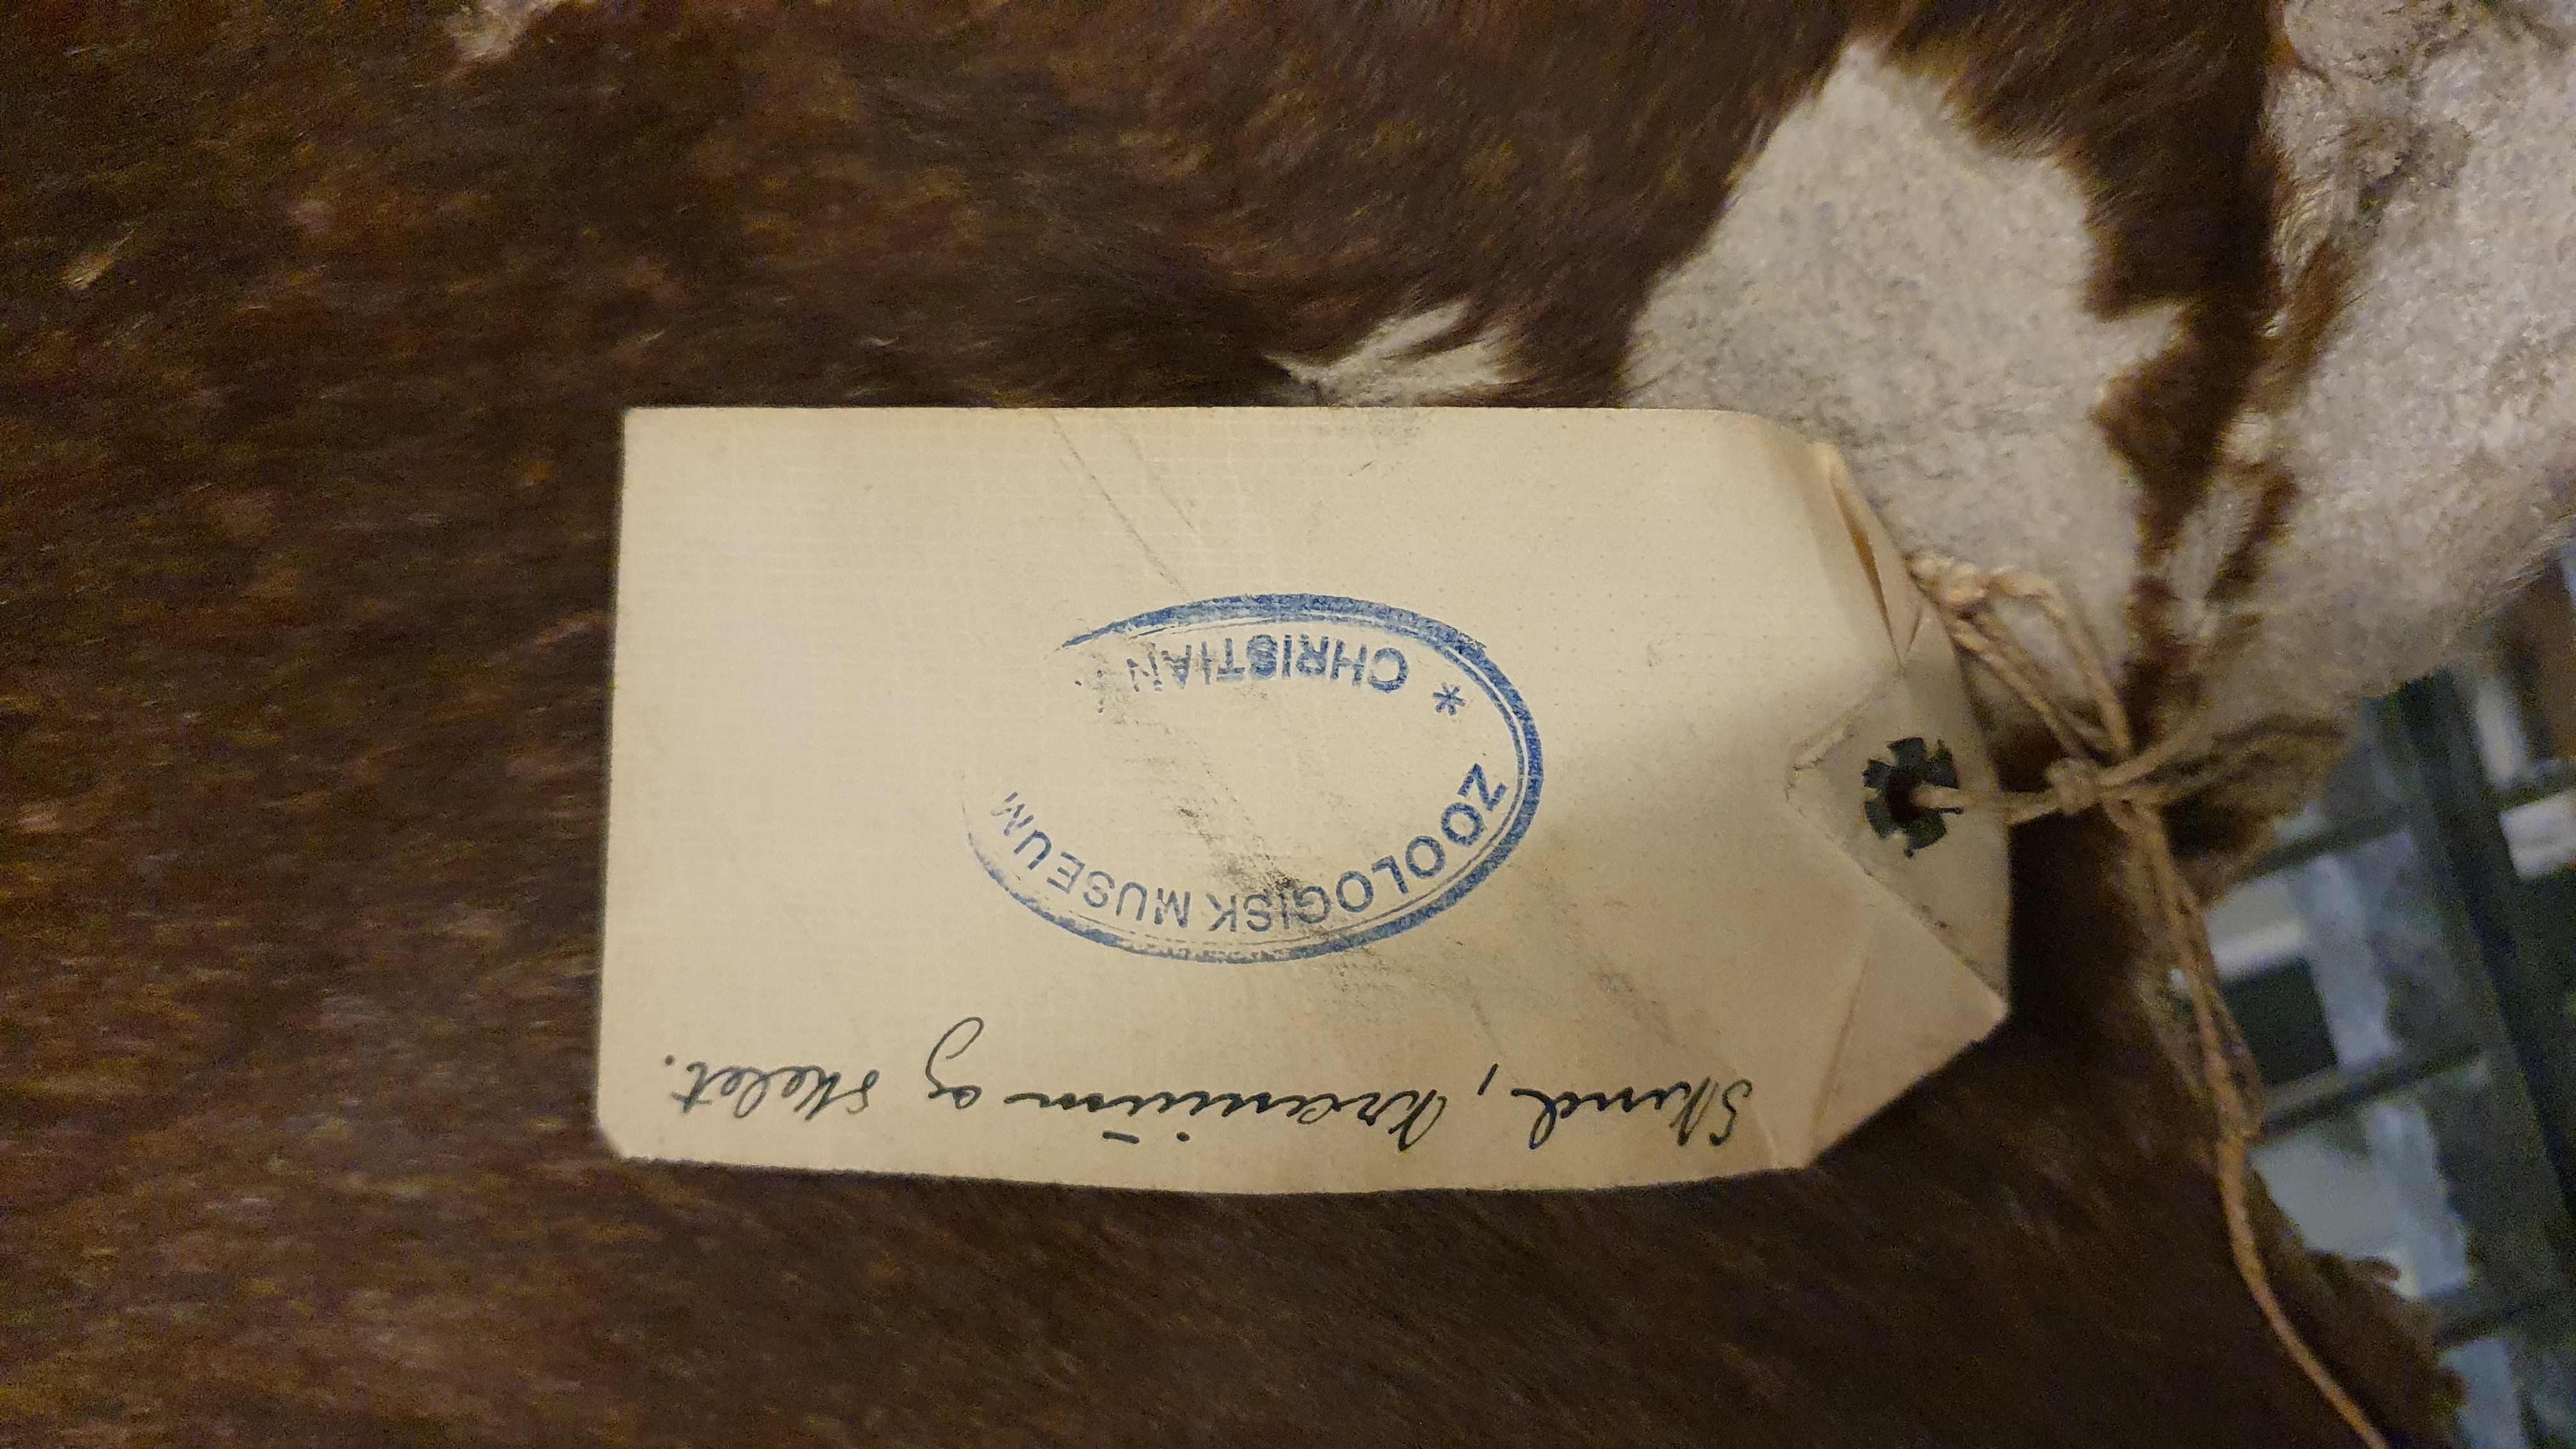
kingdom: Animalia
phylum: Chordata
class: Mammalia
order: Artiodactyla
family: Giraffidae
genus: Okapia
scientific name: Okapia johnstoni
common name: Okapi
